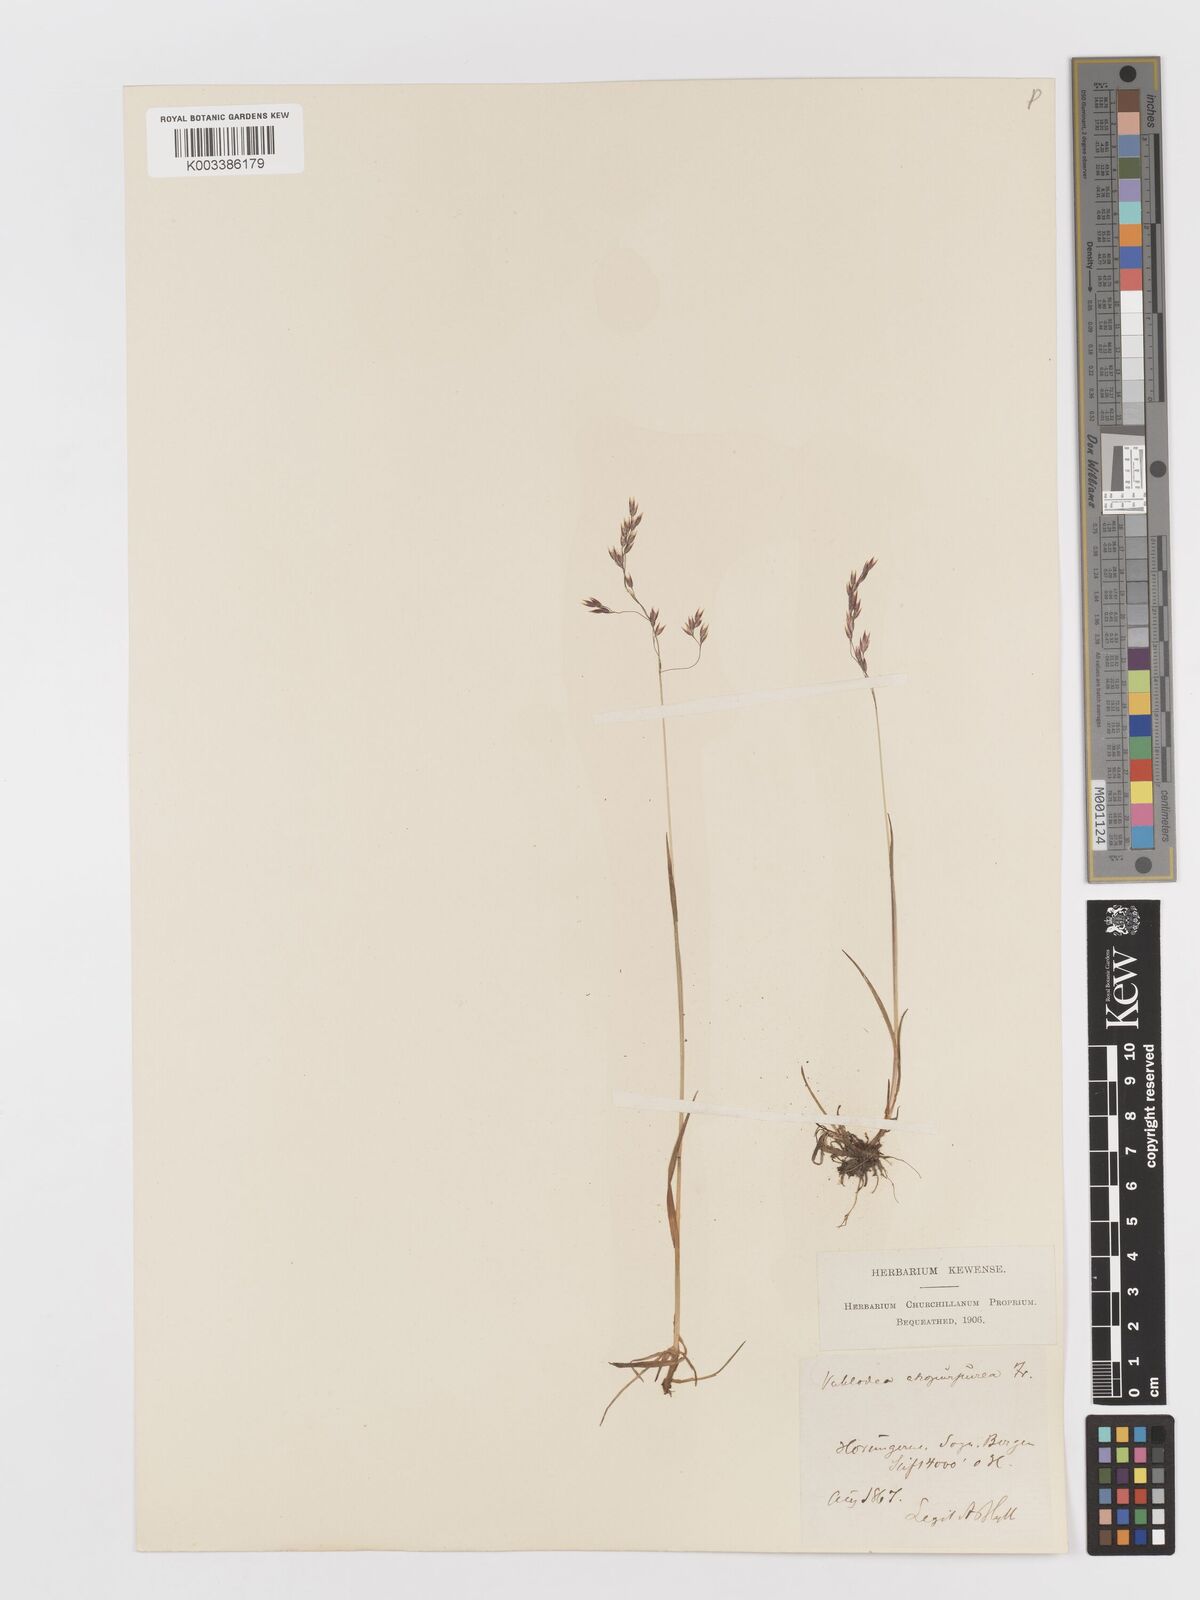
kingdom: Plantae
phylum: Tracheophyta
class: Liliopsida
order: Poales
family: Poaceae
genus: Vahlodea
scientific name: Vahlodea atropurpurea
